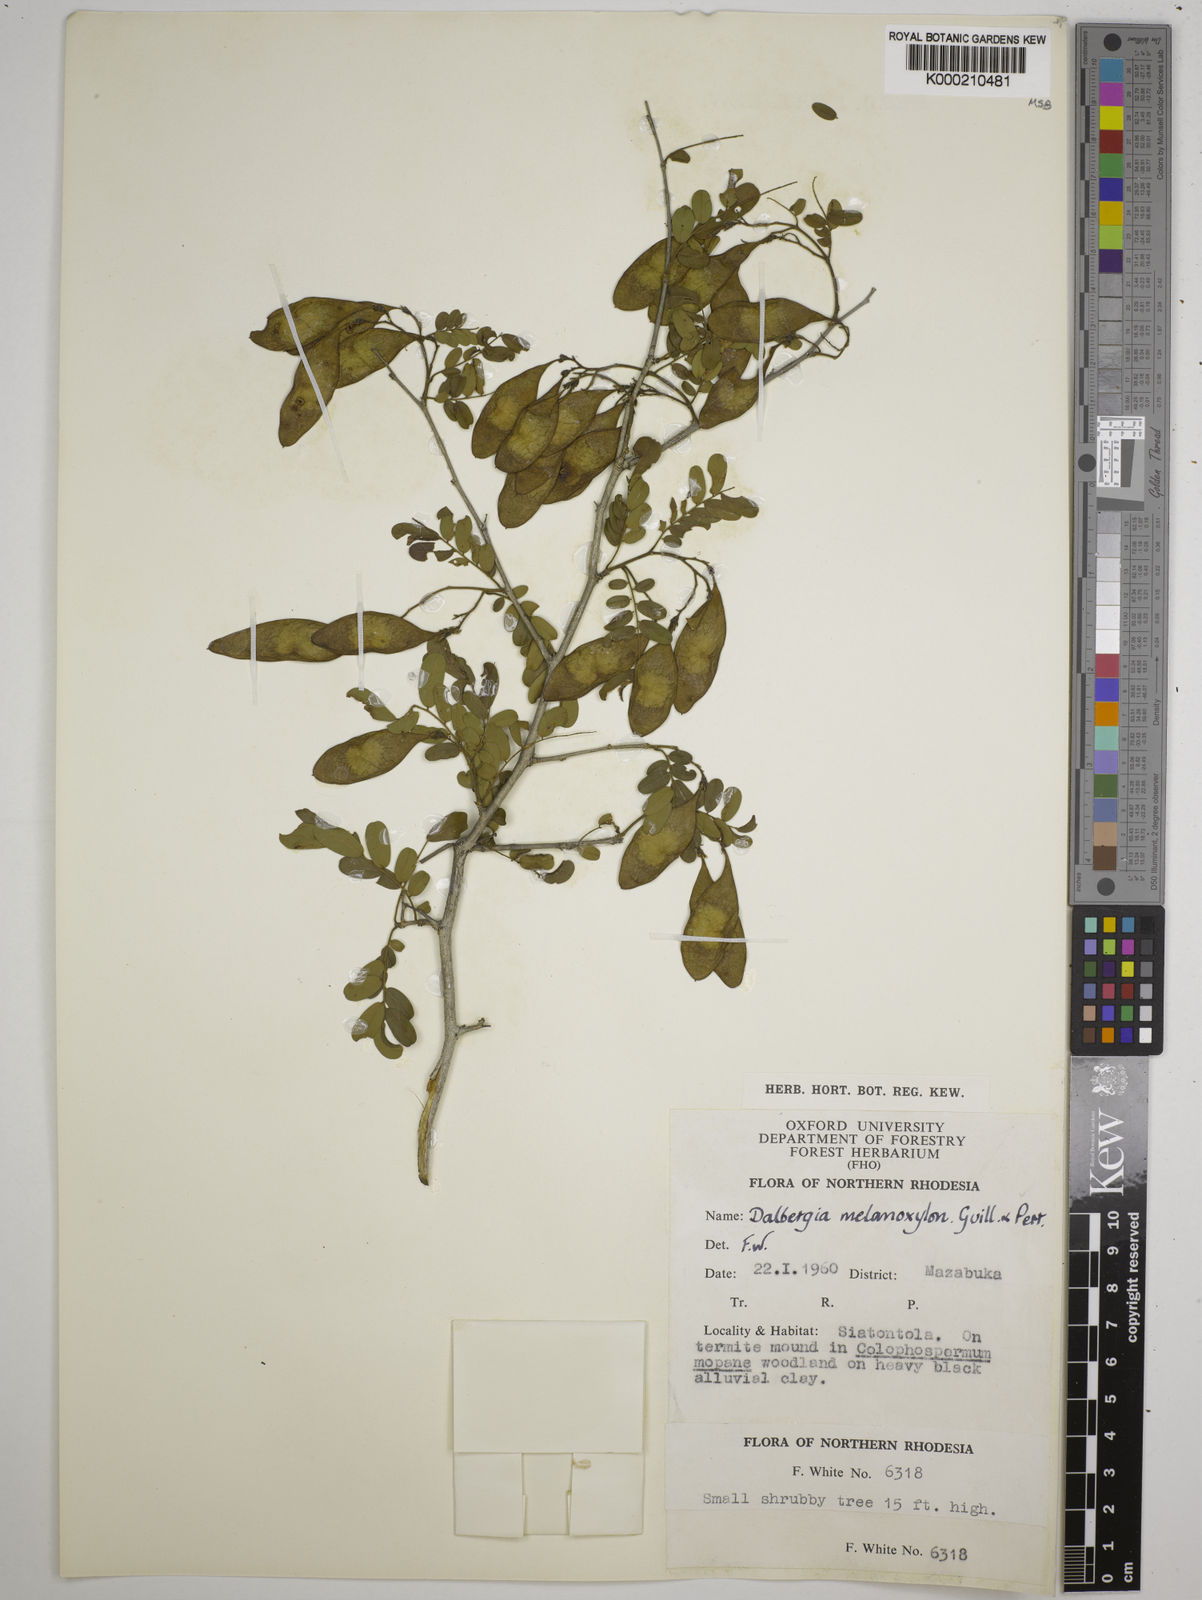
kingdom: Plantae
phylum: Tracheophyta
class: Magnoliopsida
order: Fabales
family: Fabaceae
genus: Dalbergia
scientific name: Dalbergia melanoxylon
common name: African blackwood
